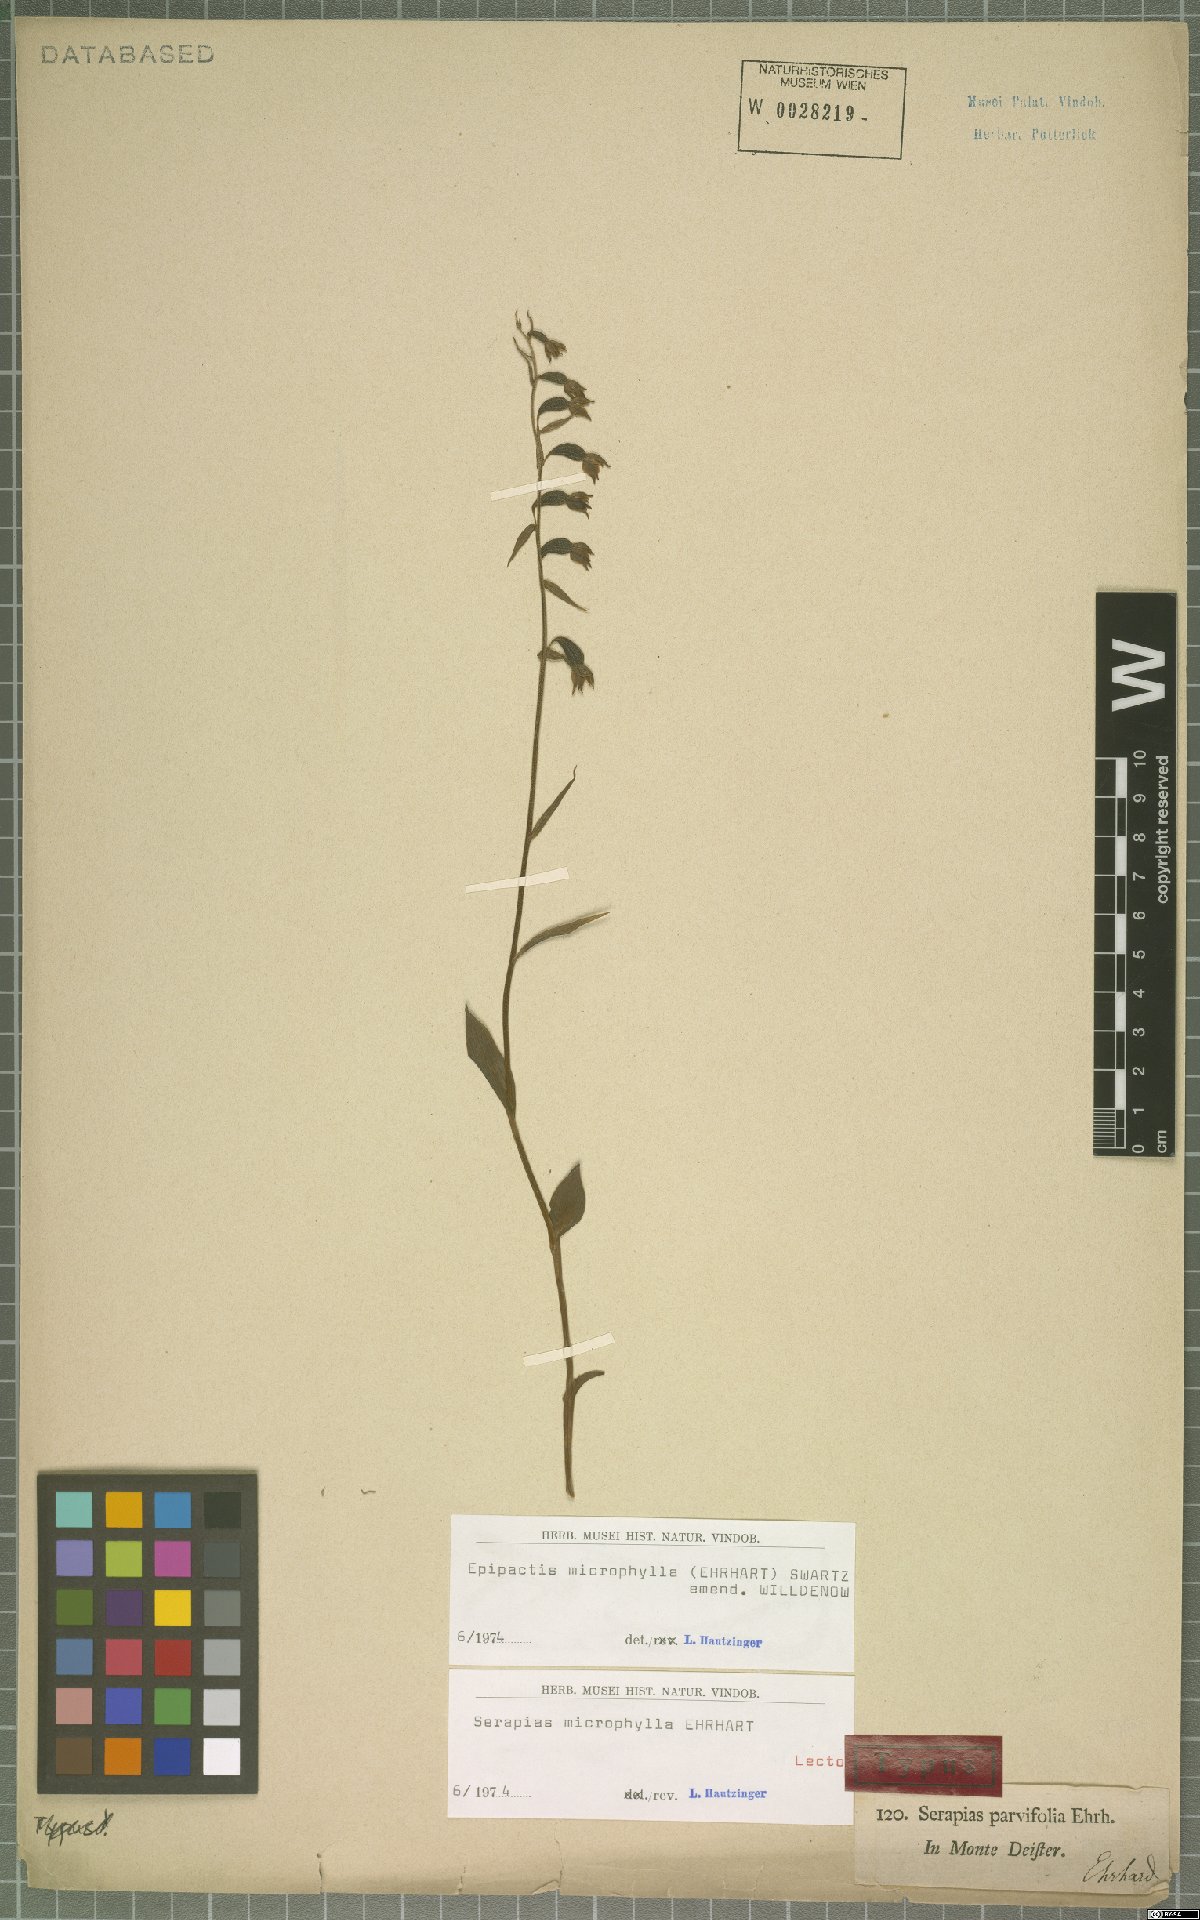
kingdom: Plantae
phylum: Tracheophyta
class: Liliopsida
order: Asparagales
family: Orchidaceae
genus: Epipactis
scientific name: Epipactis microphylla
